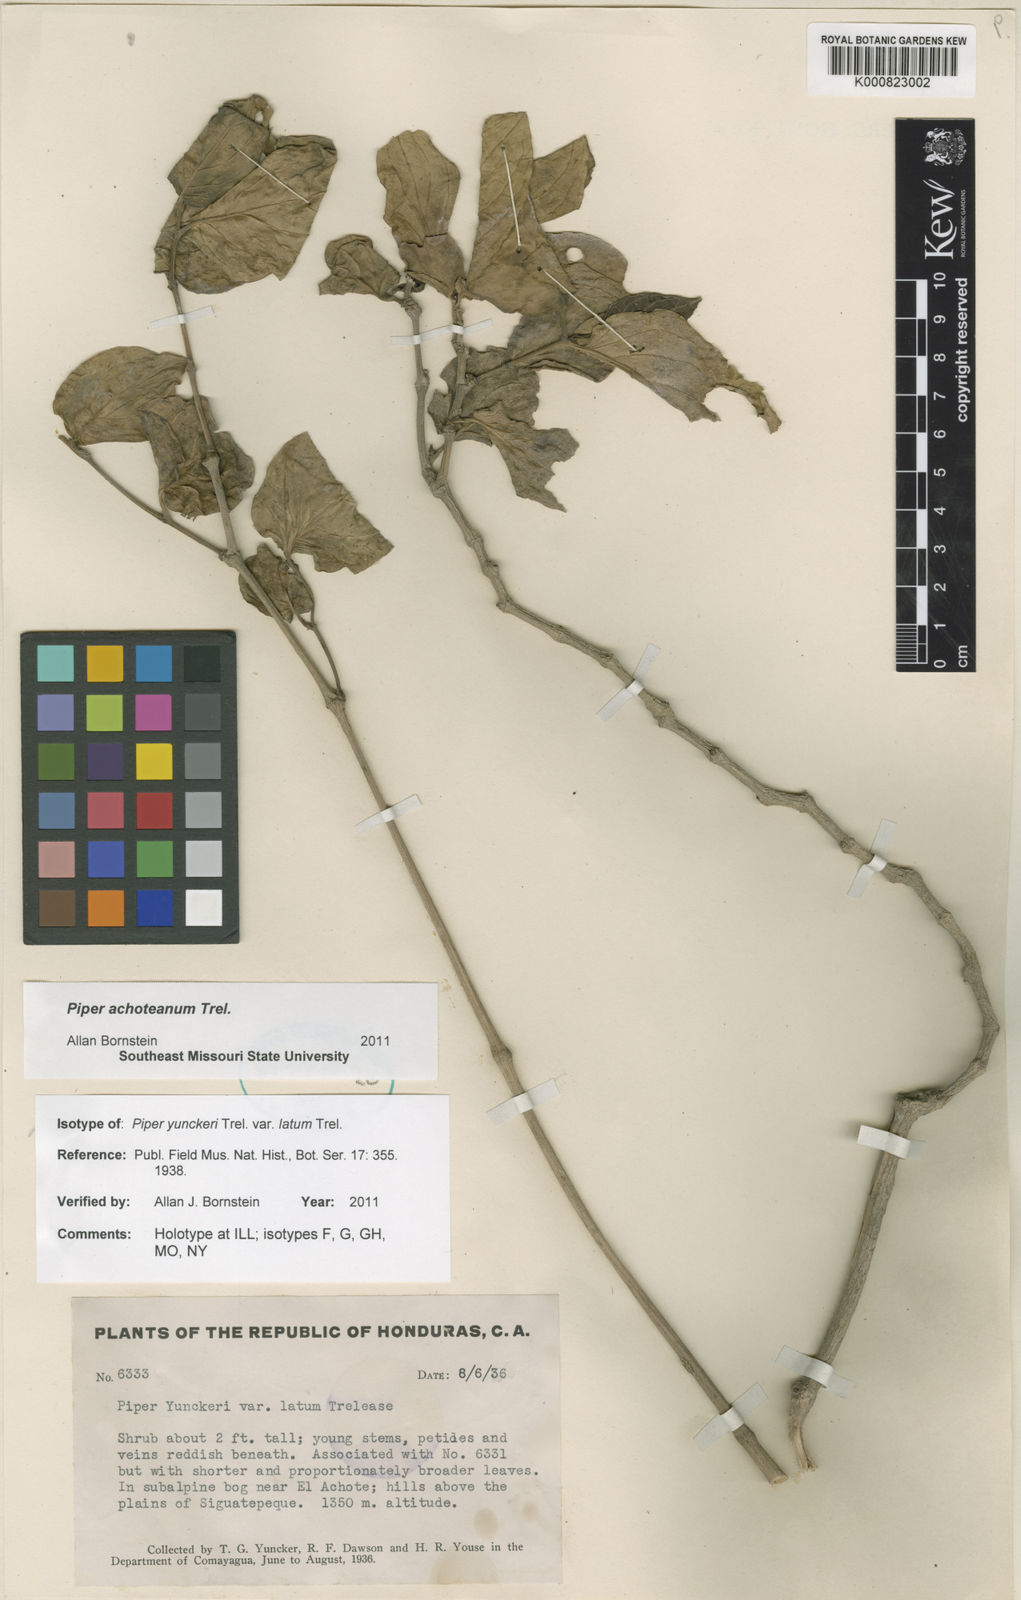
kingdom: Plantae
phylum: Tracheophyta
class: Magnoliopsida
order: Piperales
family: Piperaceae
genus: Piper
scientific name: Piper achoteanum
